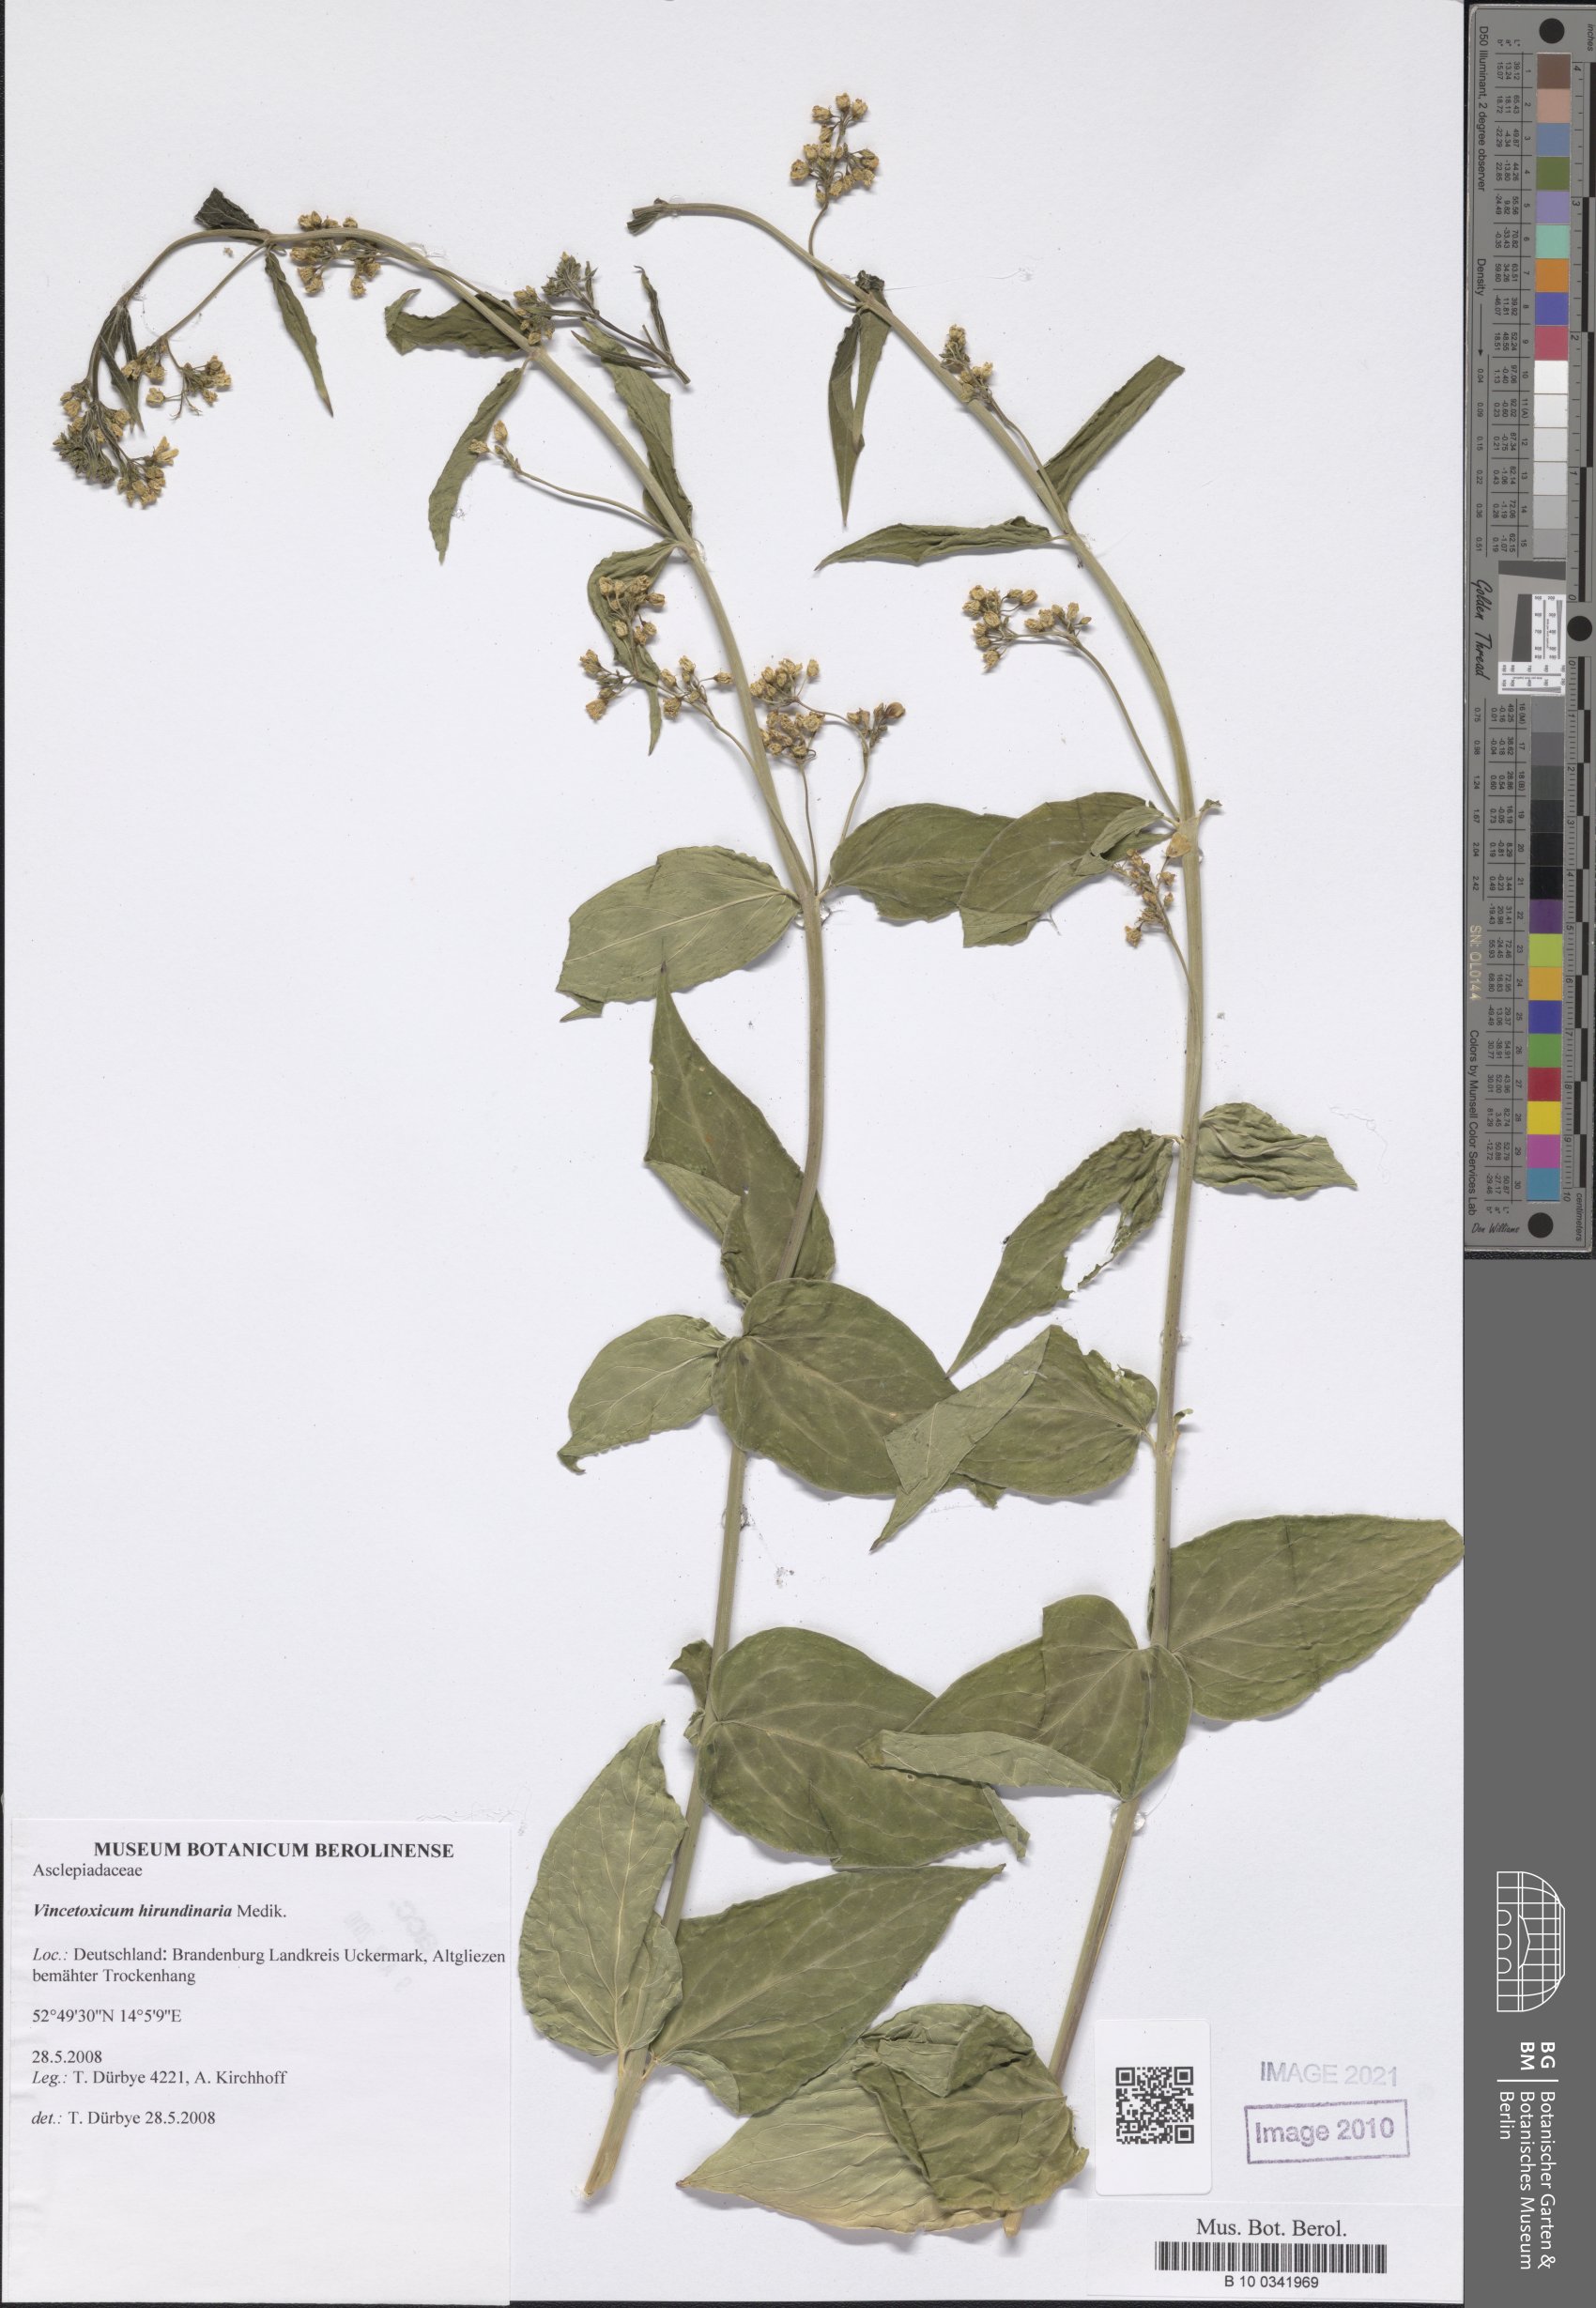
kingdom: Plantae
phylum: Tracheophyta
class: Magnoliopsida
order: Gentianales
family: Apocynaceae
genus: Vincetoxicum
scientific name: Vincetoxicum hirundinaria
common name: White swallowwort
